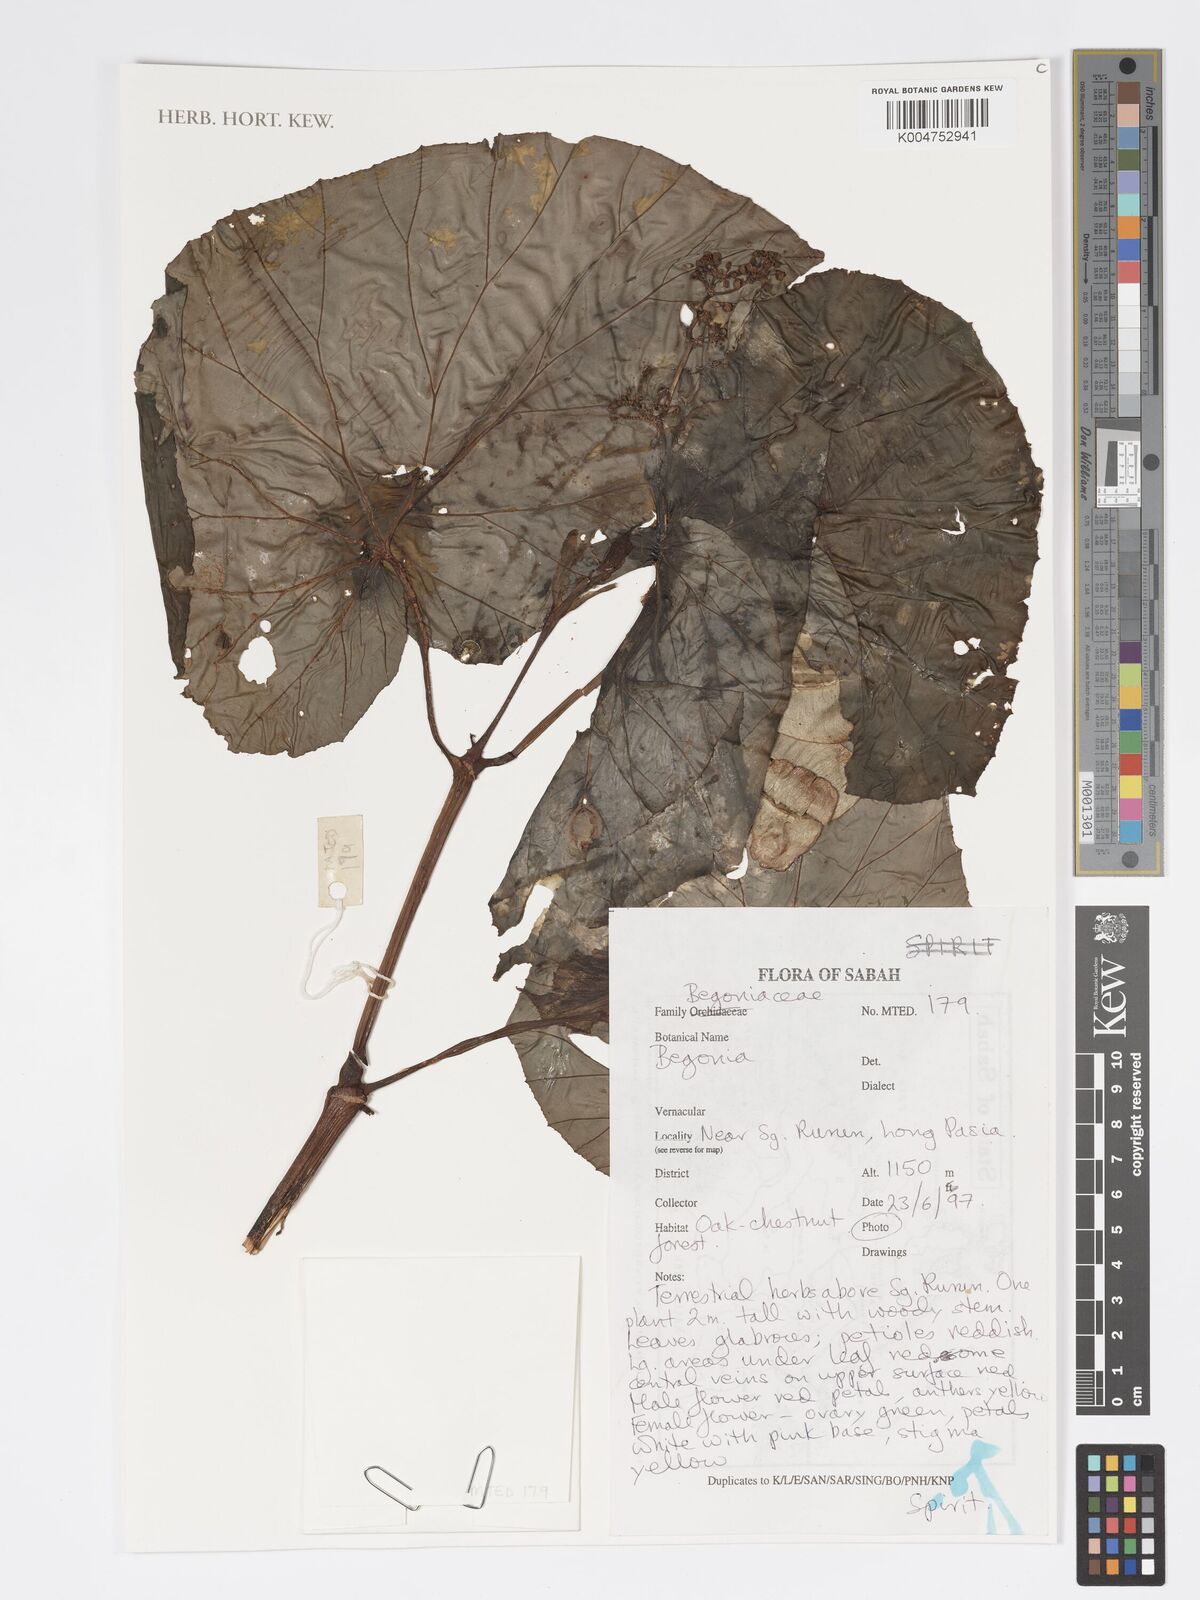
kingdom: Plantae
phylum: Tracheophyta
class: Magnoliopsida
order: Cucurbitales
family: Begoniaceae
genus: Begonia
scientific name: Begonia
